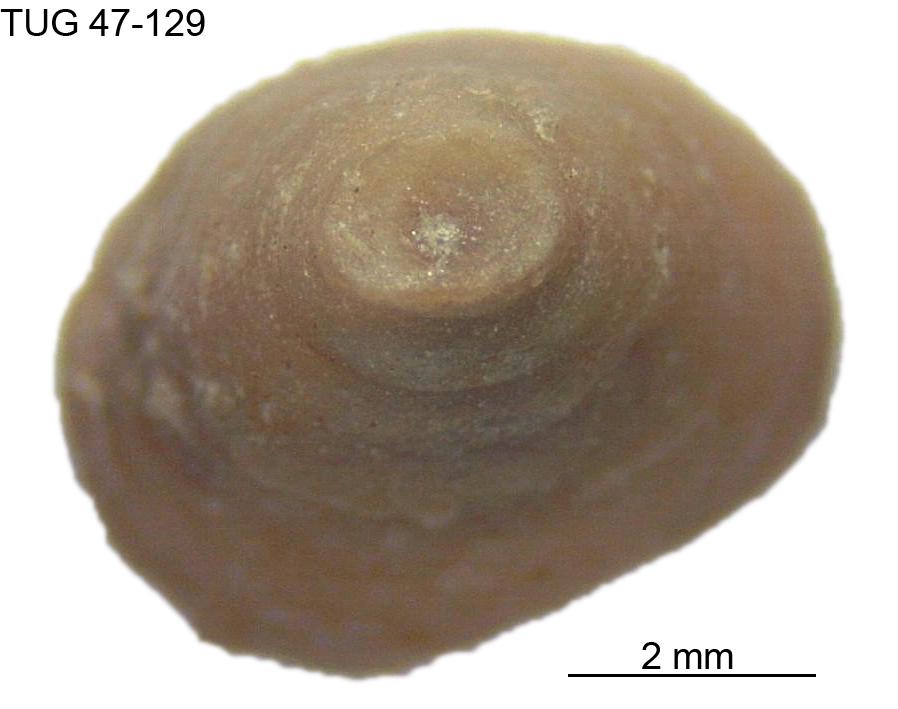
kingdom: Animalia
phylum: Mollusca
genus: Anticalyptraea
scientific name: Anticalyptraea westergaardi
